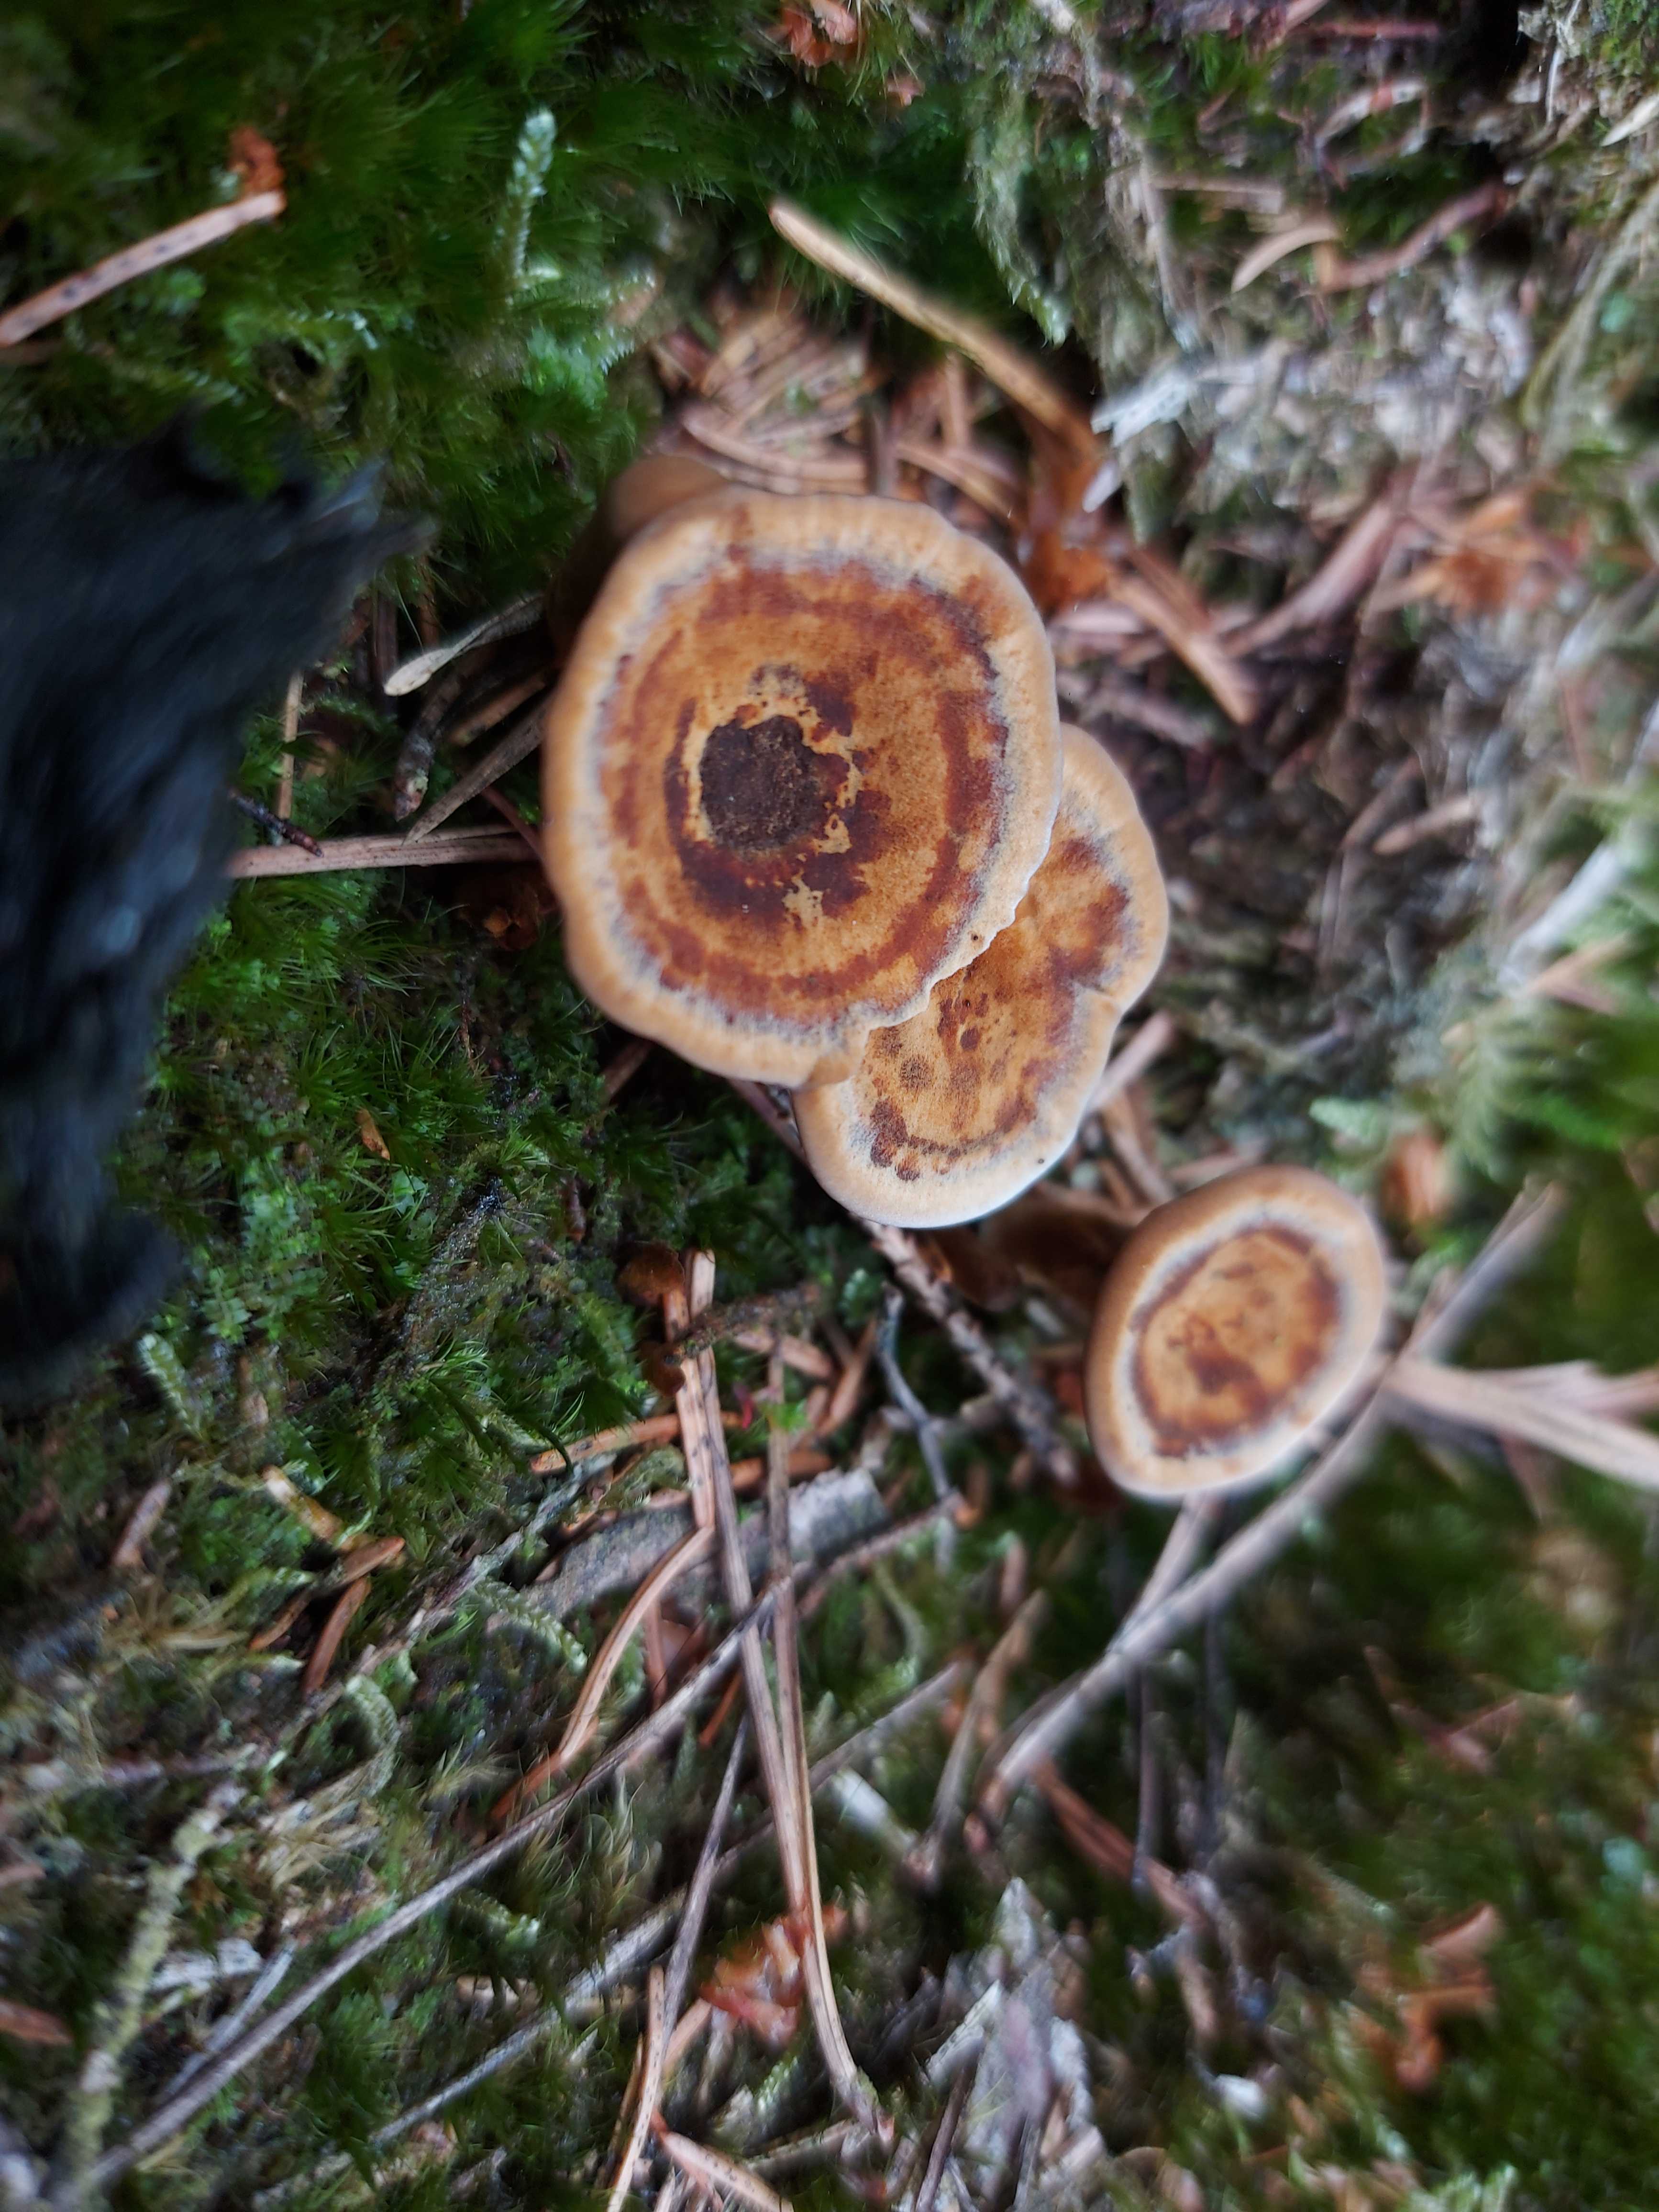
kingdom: Fungi
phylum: Basidiomycota
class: Agaricomycetes
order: Hymenochaetales
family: Hymenochaetaceae
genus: Coltricia
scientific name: Coltricia perennis
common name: almindelig sandporesvamp
